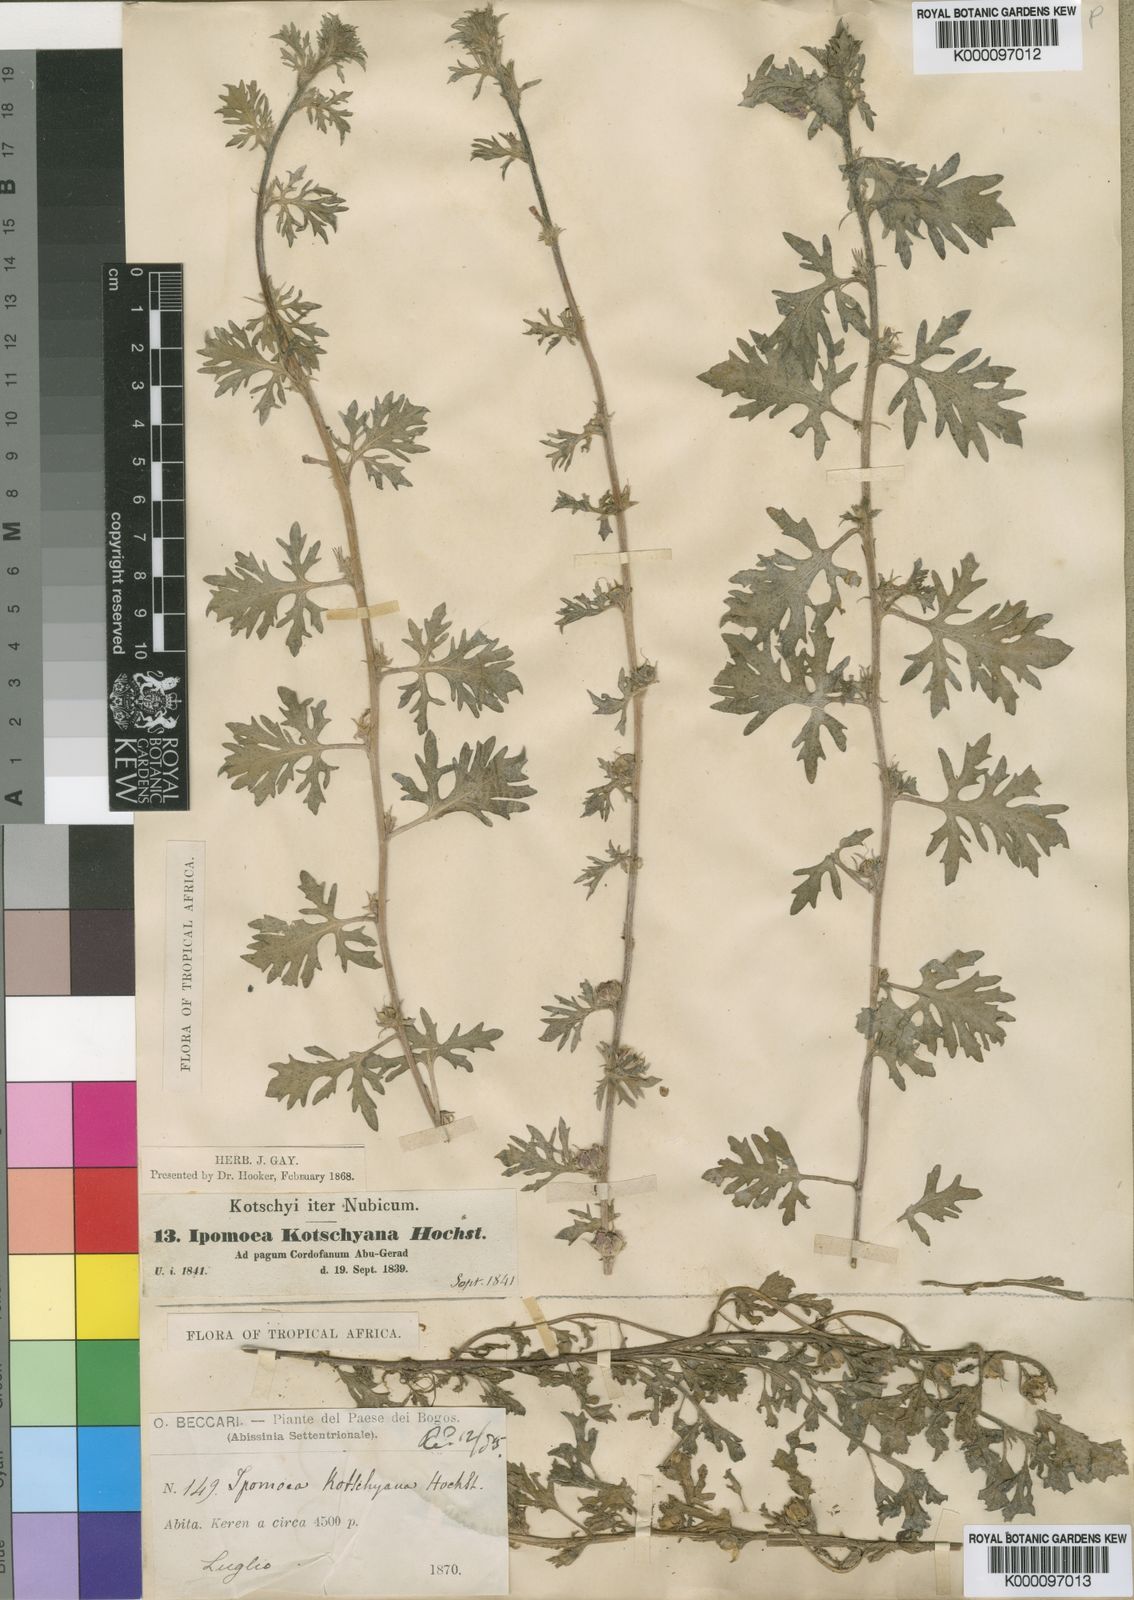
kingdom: Plantae
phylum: Tracheophyta
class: Magnoliopsida
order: Solanales
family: Convolvulaceae
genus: Ipomoea
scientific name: Ipomoea kotschyana
